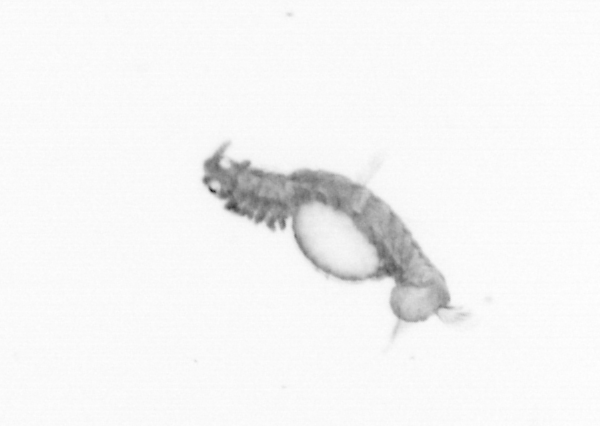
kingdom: Animalia
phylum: Annelida
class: Polychaeta
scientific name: Polychaeta
